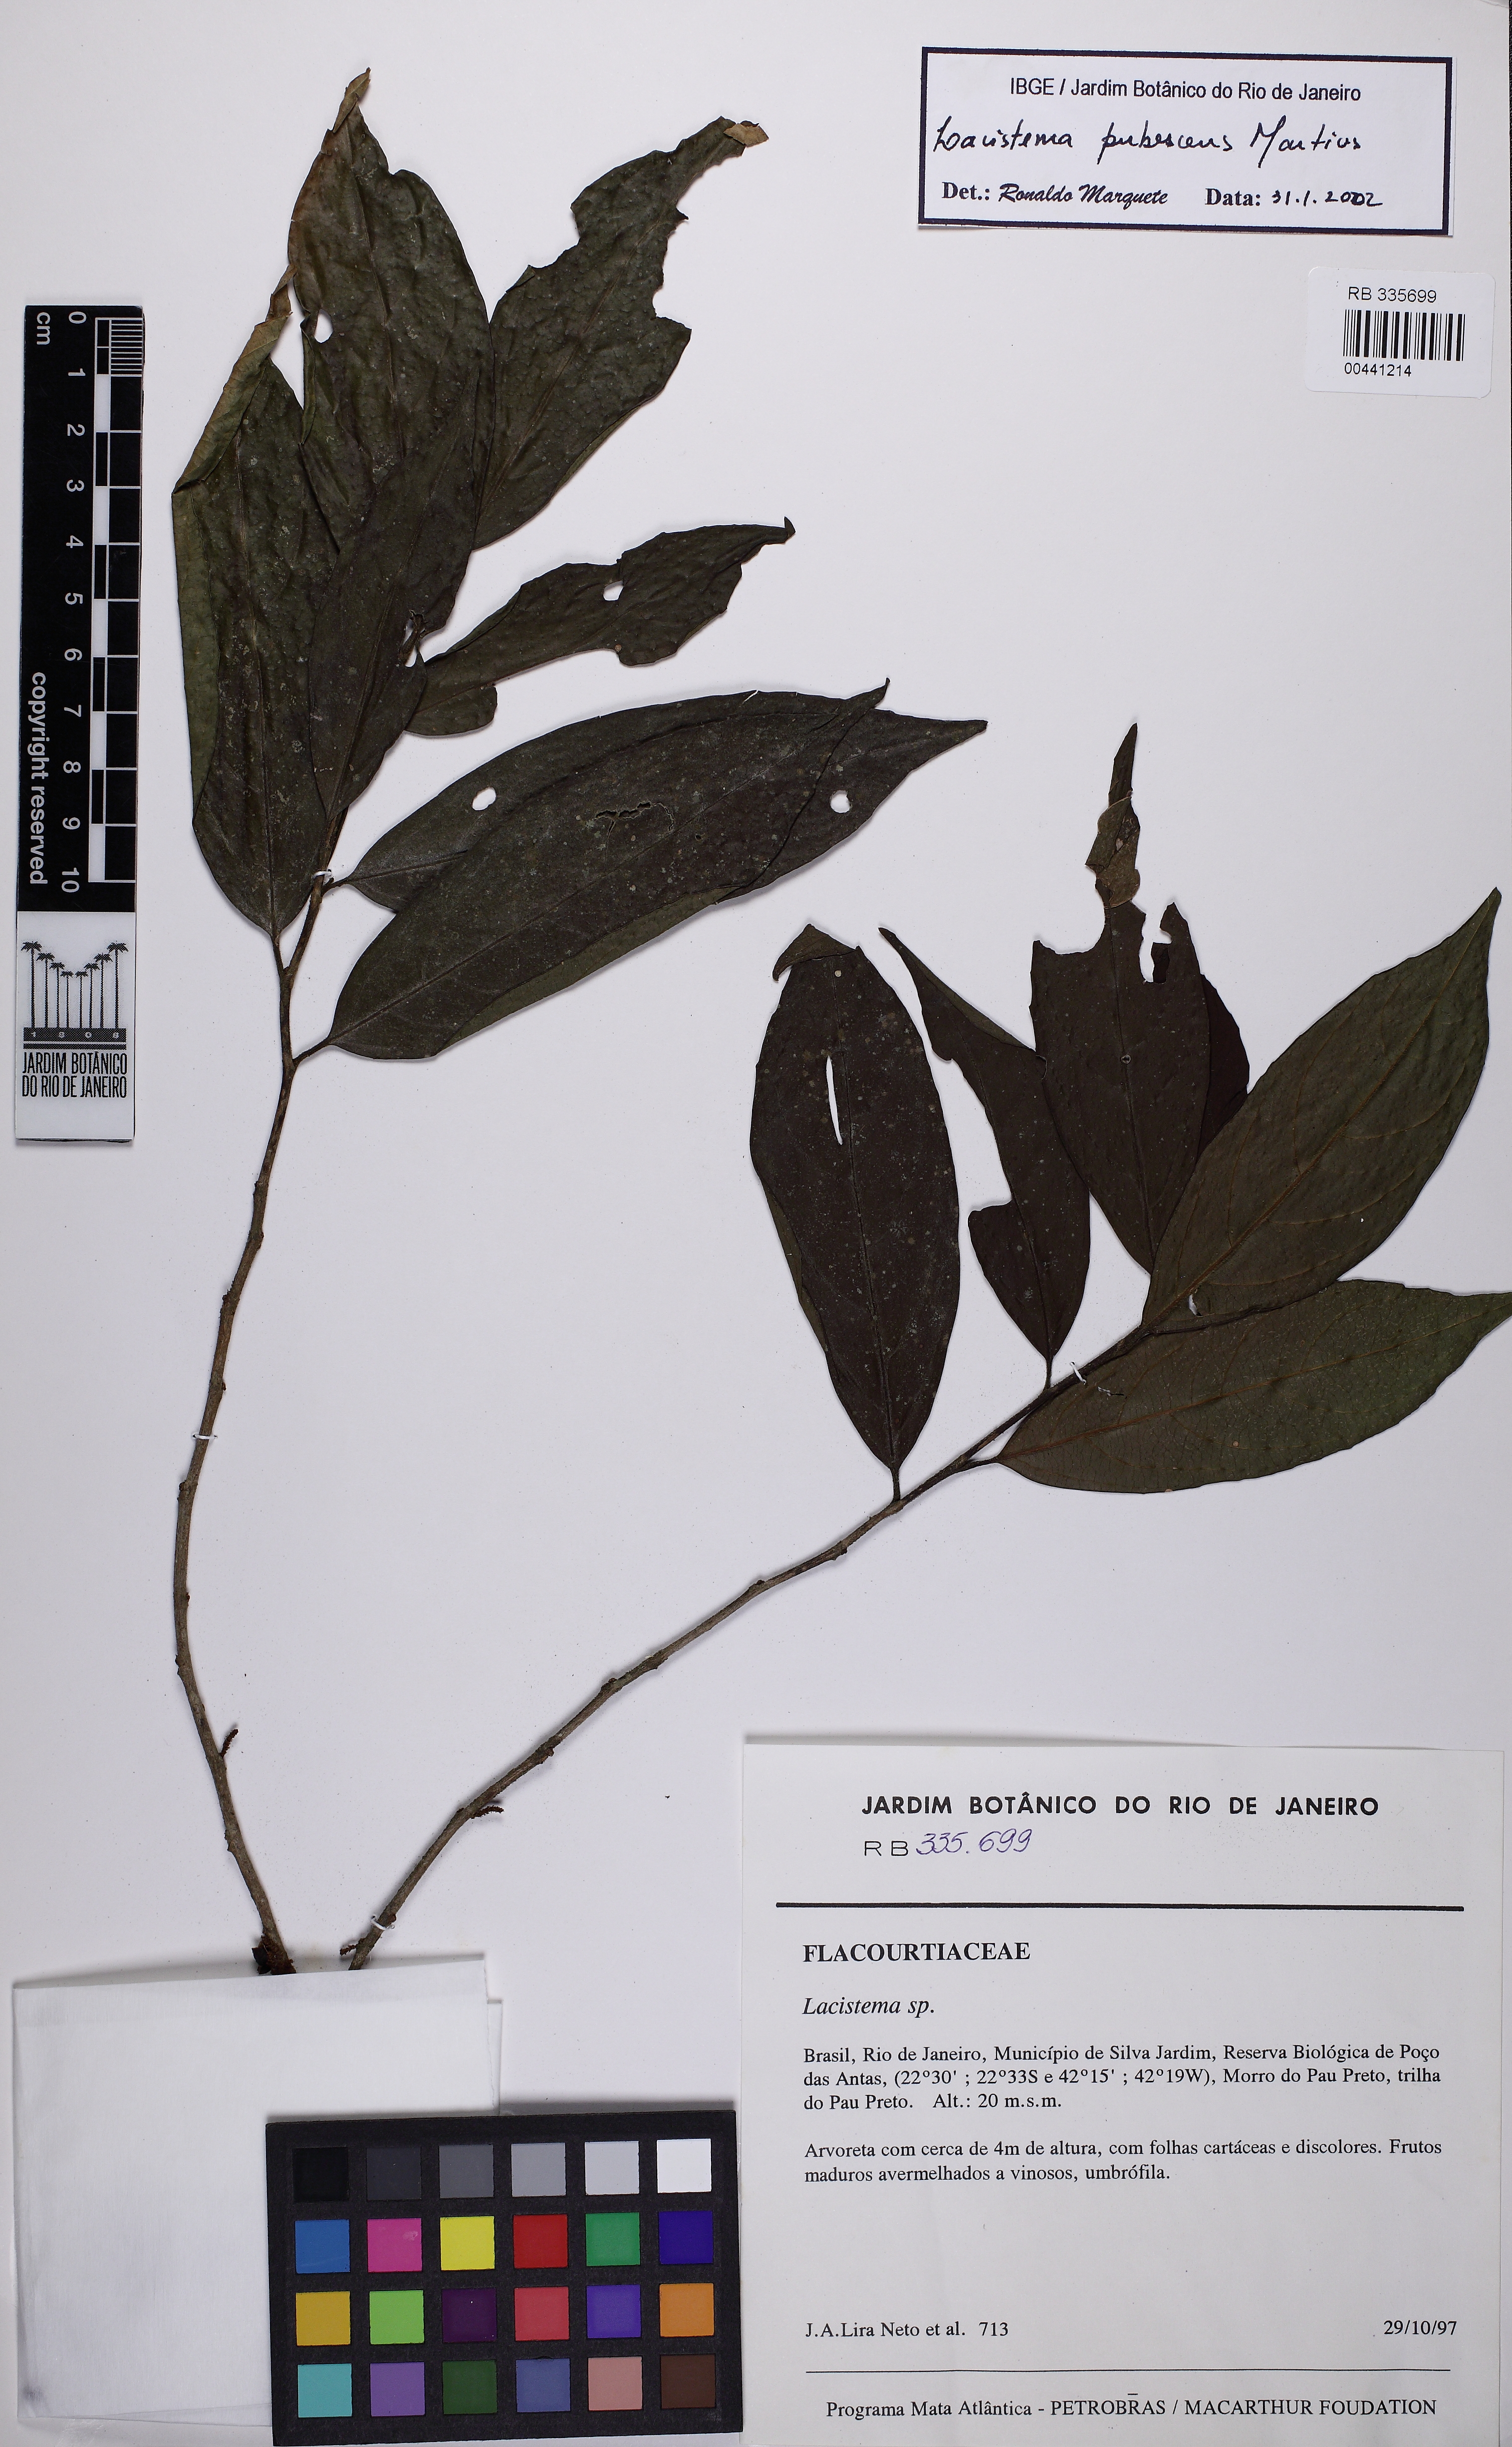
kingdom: Plantae
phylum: Tracheophyta
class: Magnoliopsida
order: Malpighiales
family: Lacistemataceae
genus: Lacistema
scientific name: Lacistema pubescens
